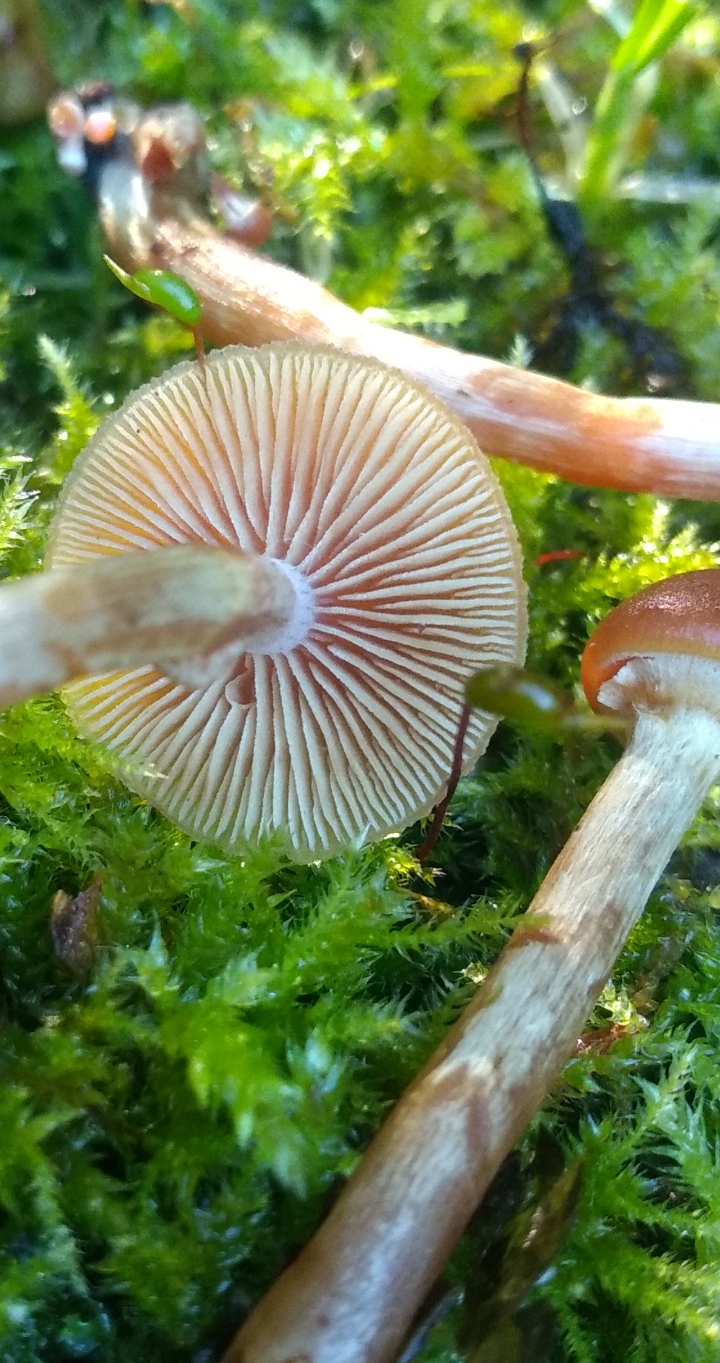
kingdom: Fungi
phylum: Basidiomycota
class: Agaricomycetes
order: Agaricales
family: Hymenogastraceae
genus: Galerina
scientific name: Galerina marginata
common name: randbæltet hjelmhat
